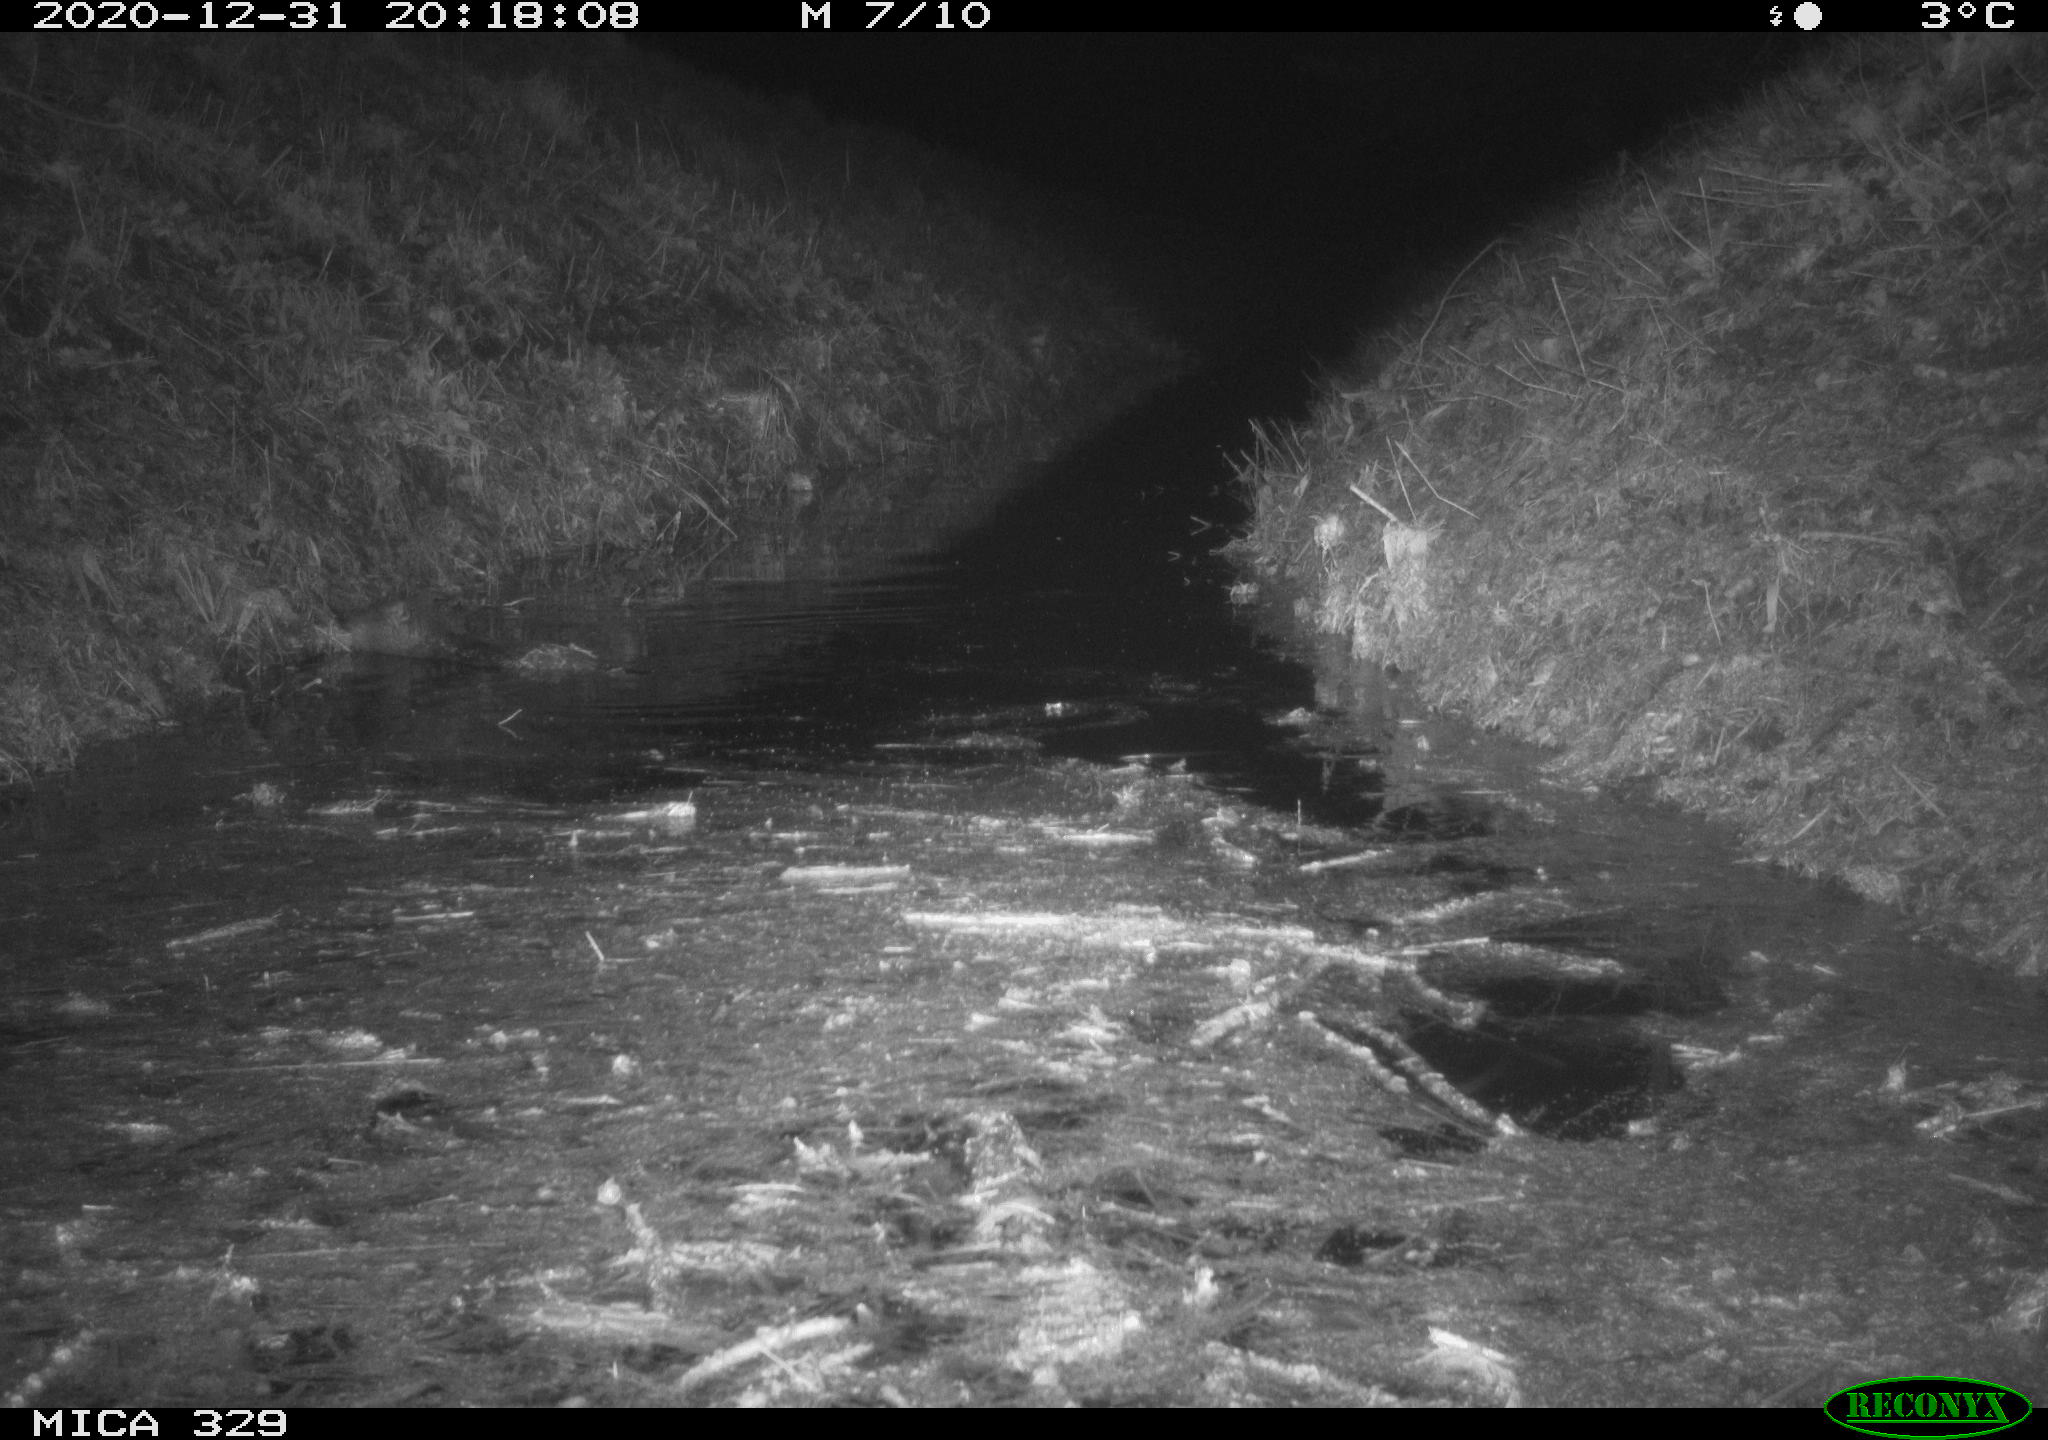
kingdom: Animalia
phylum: Chordata
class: Mammalia
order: Rodentia
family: Myocastoridae
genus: Myocastor
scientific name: Myocastor coypus
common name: Coypu
